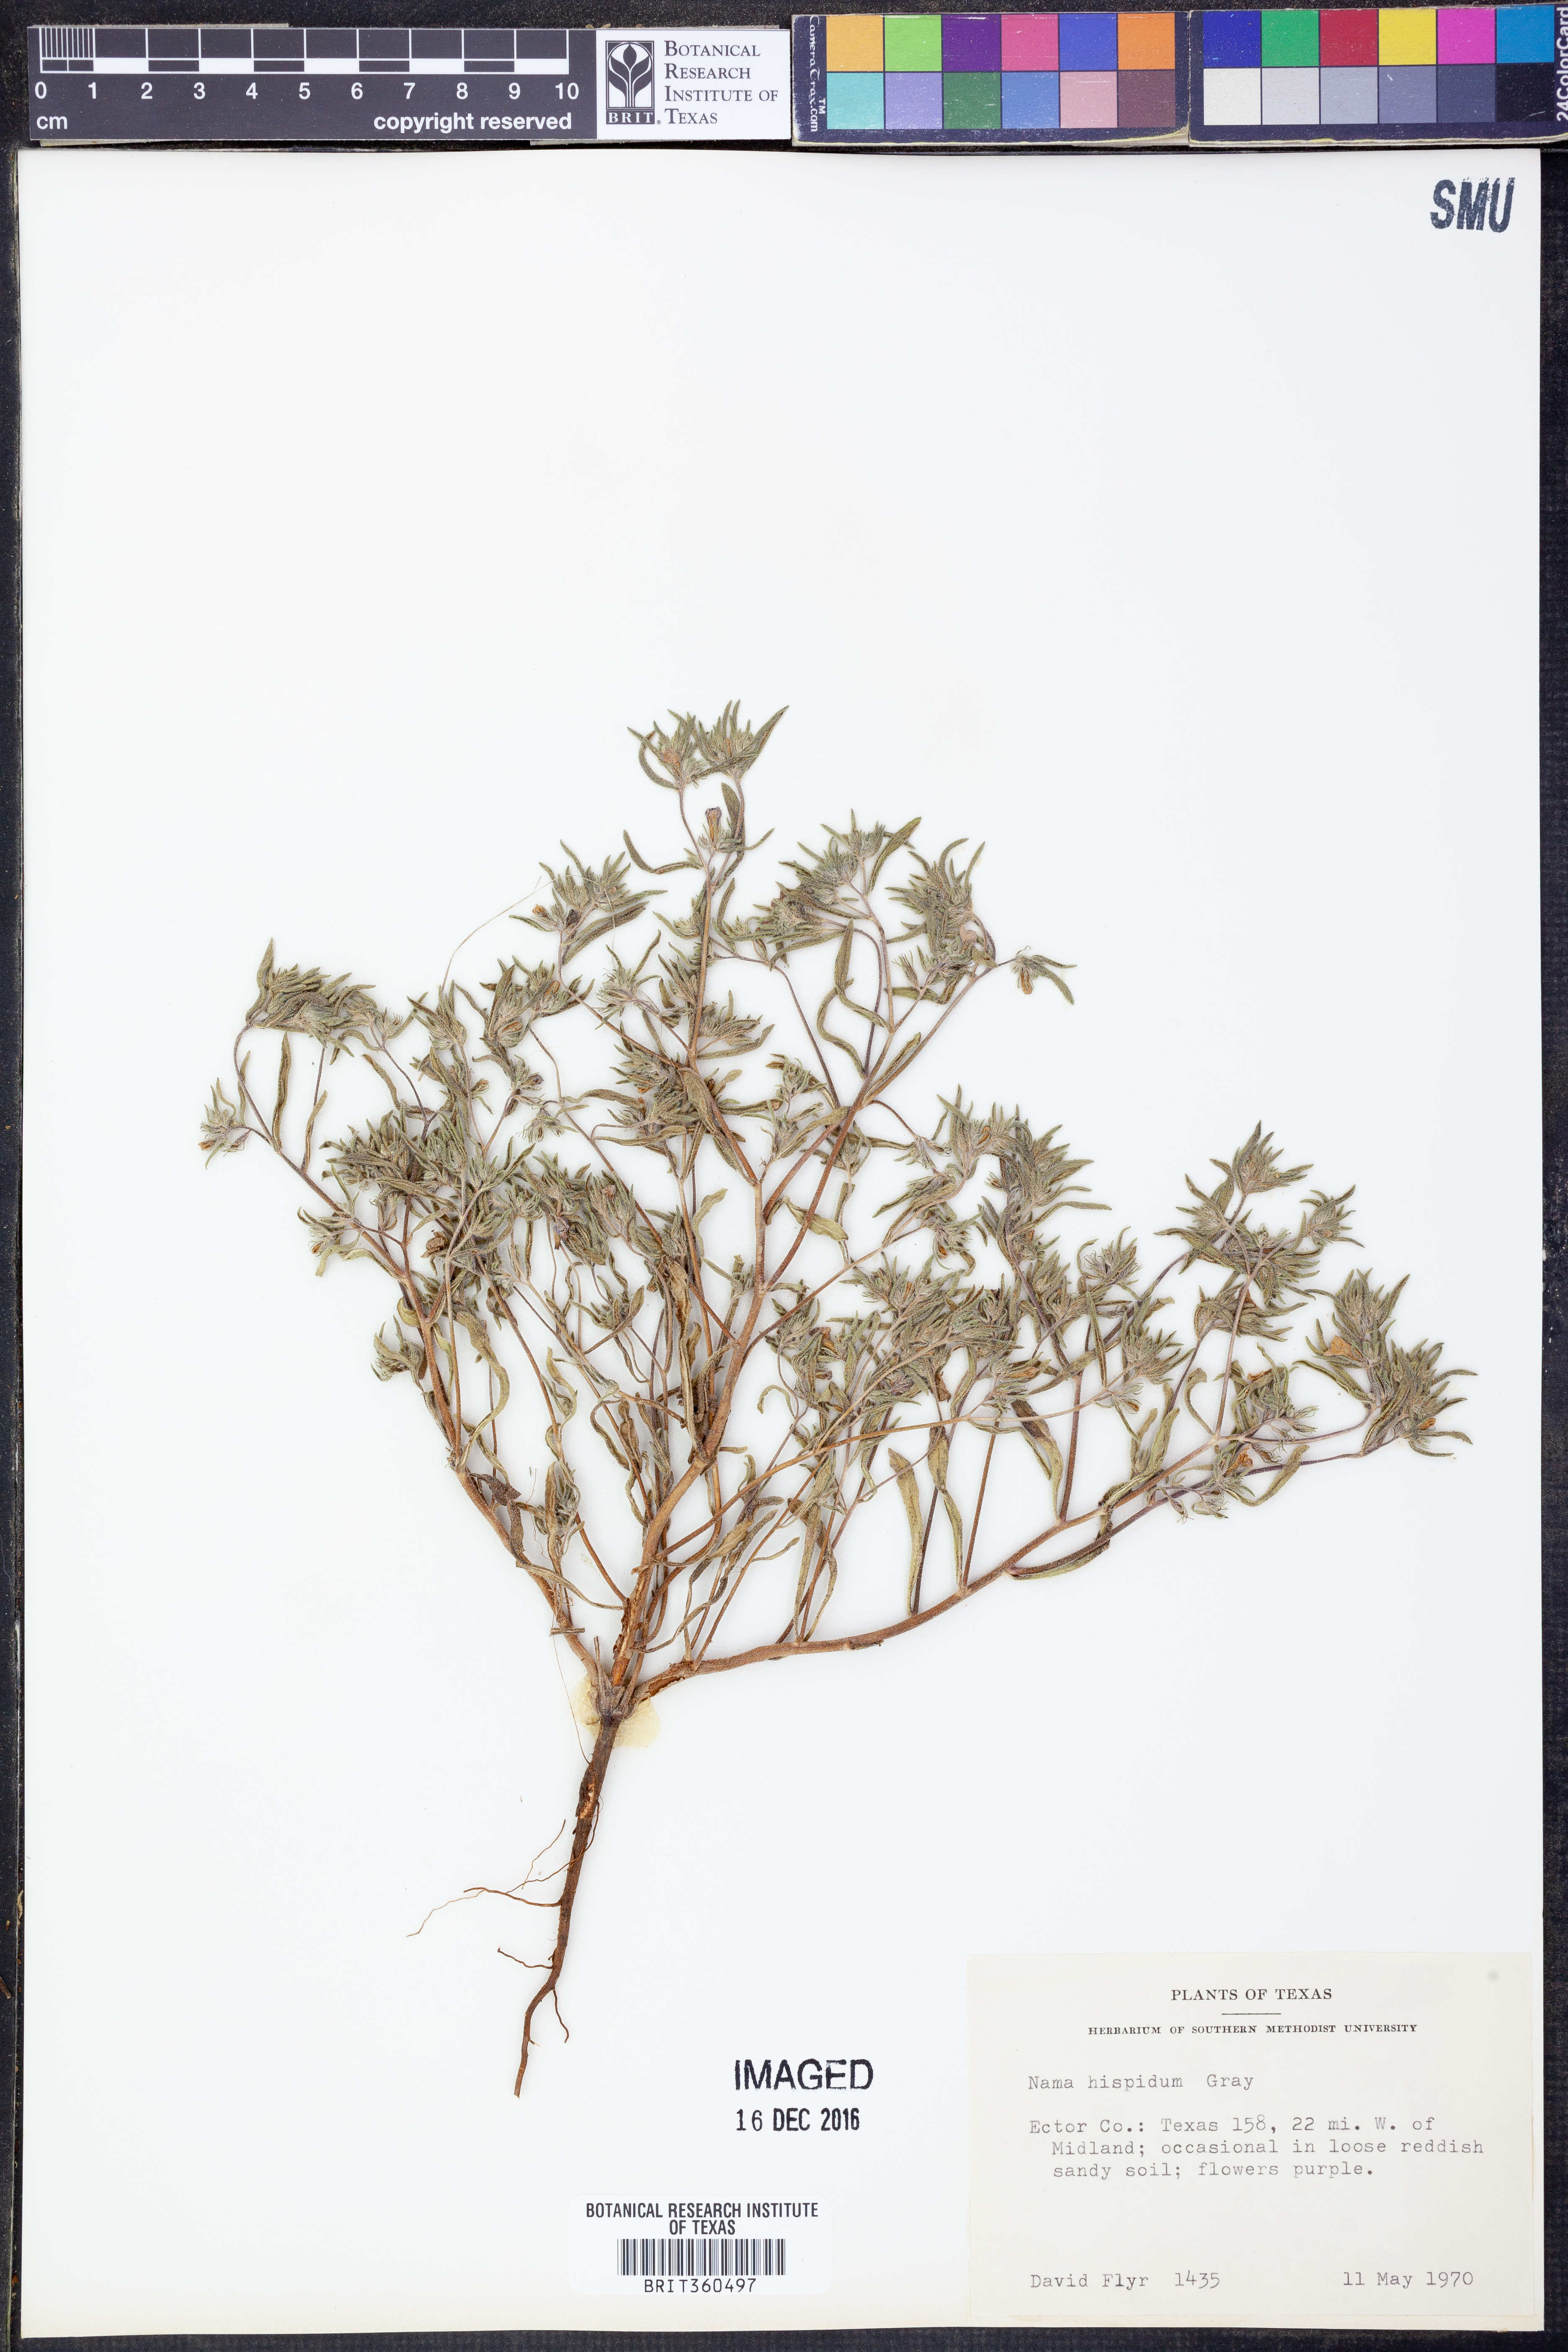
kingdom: Plantae
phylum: Tracheophyta
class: Magnoliopsida
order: Boraginales
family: Namaceae
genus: Nama
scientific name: Nama hispida
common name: Bristly nama
